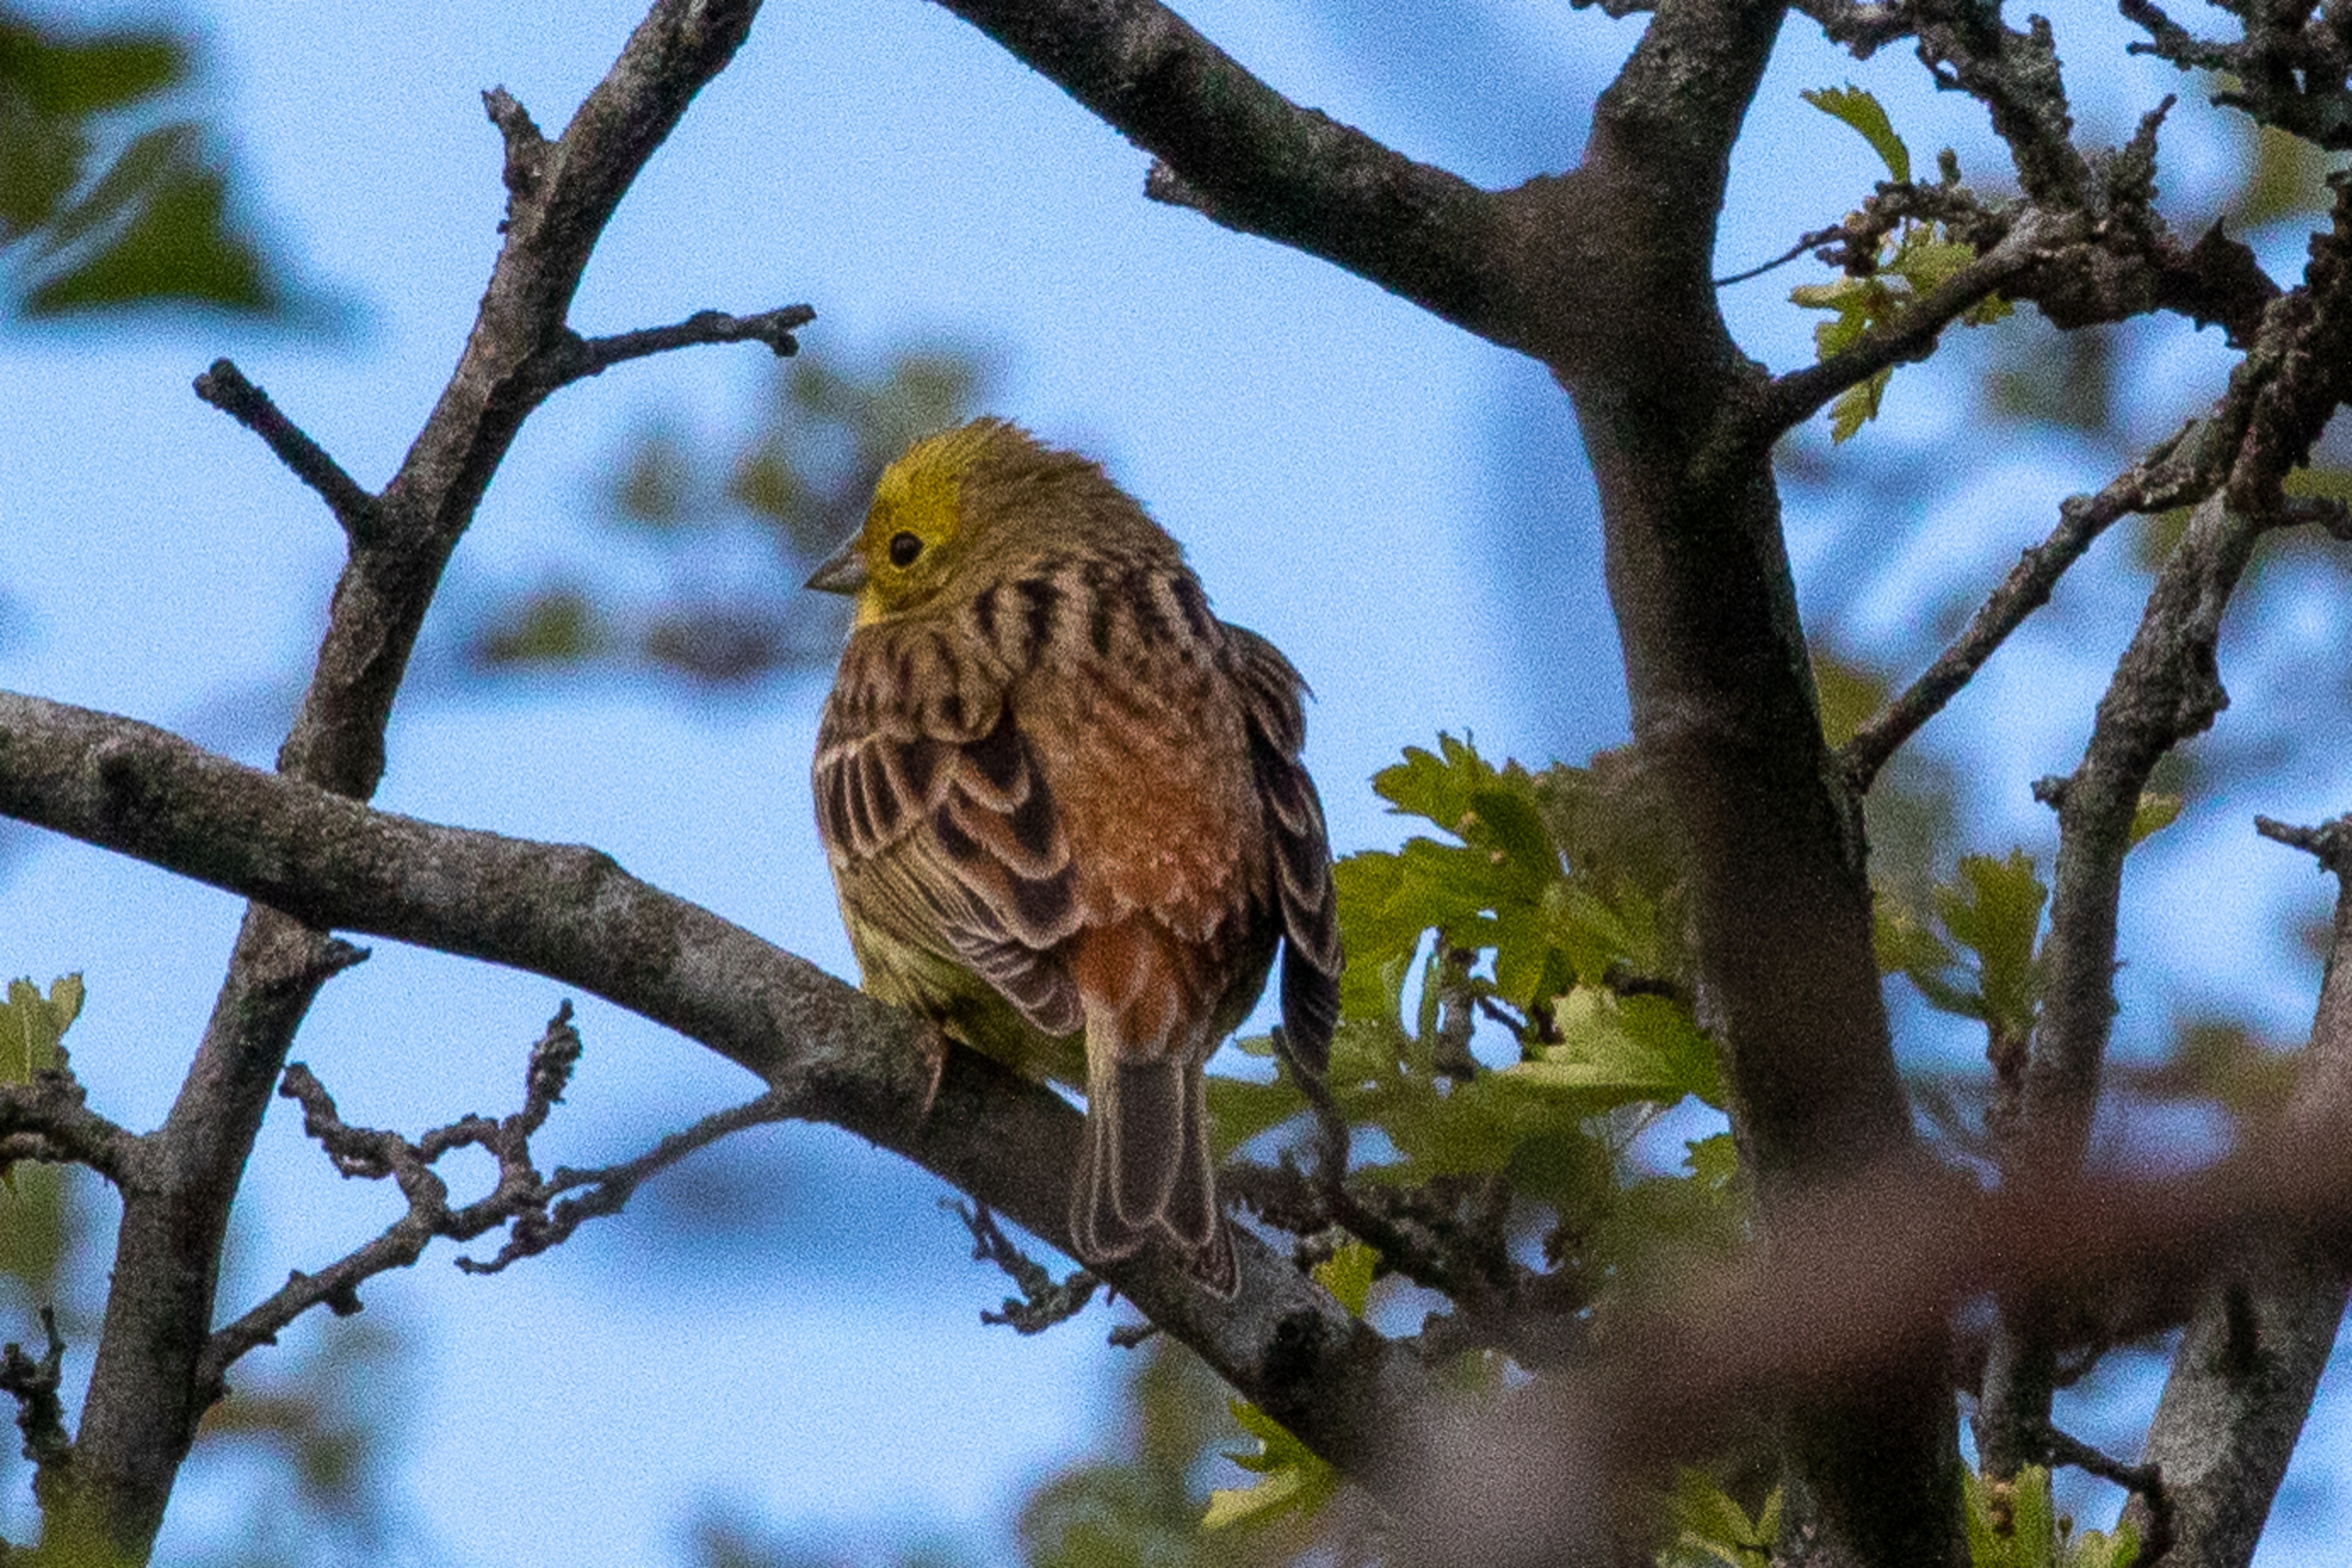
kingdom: Animalia
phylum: Chordata
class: Aves
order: Passeriformes
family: Emberizidae
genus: Emberiza
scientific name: Emberiza citrinella
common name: Gulspurv
